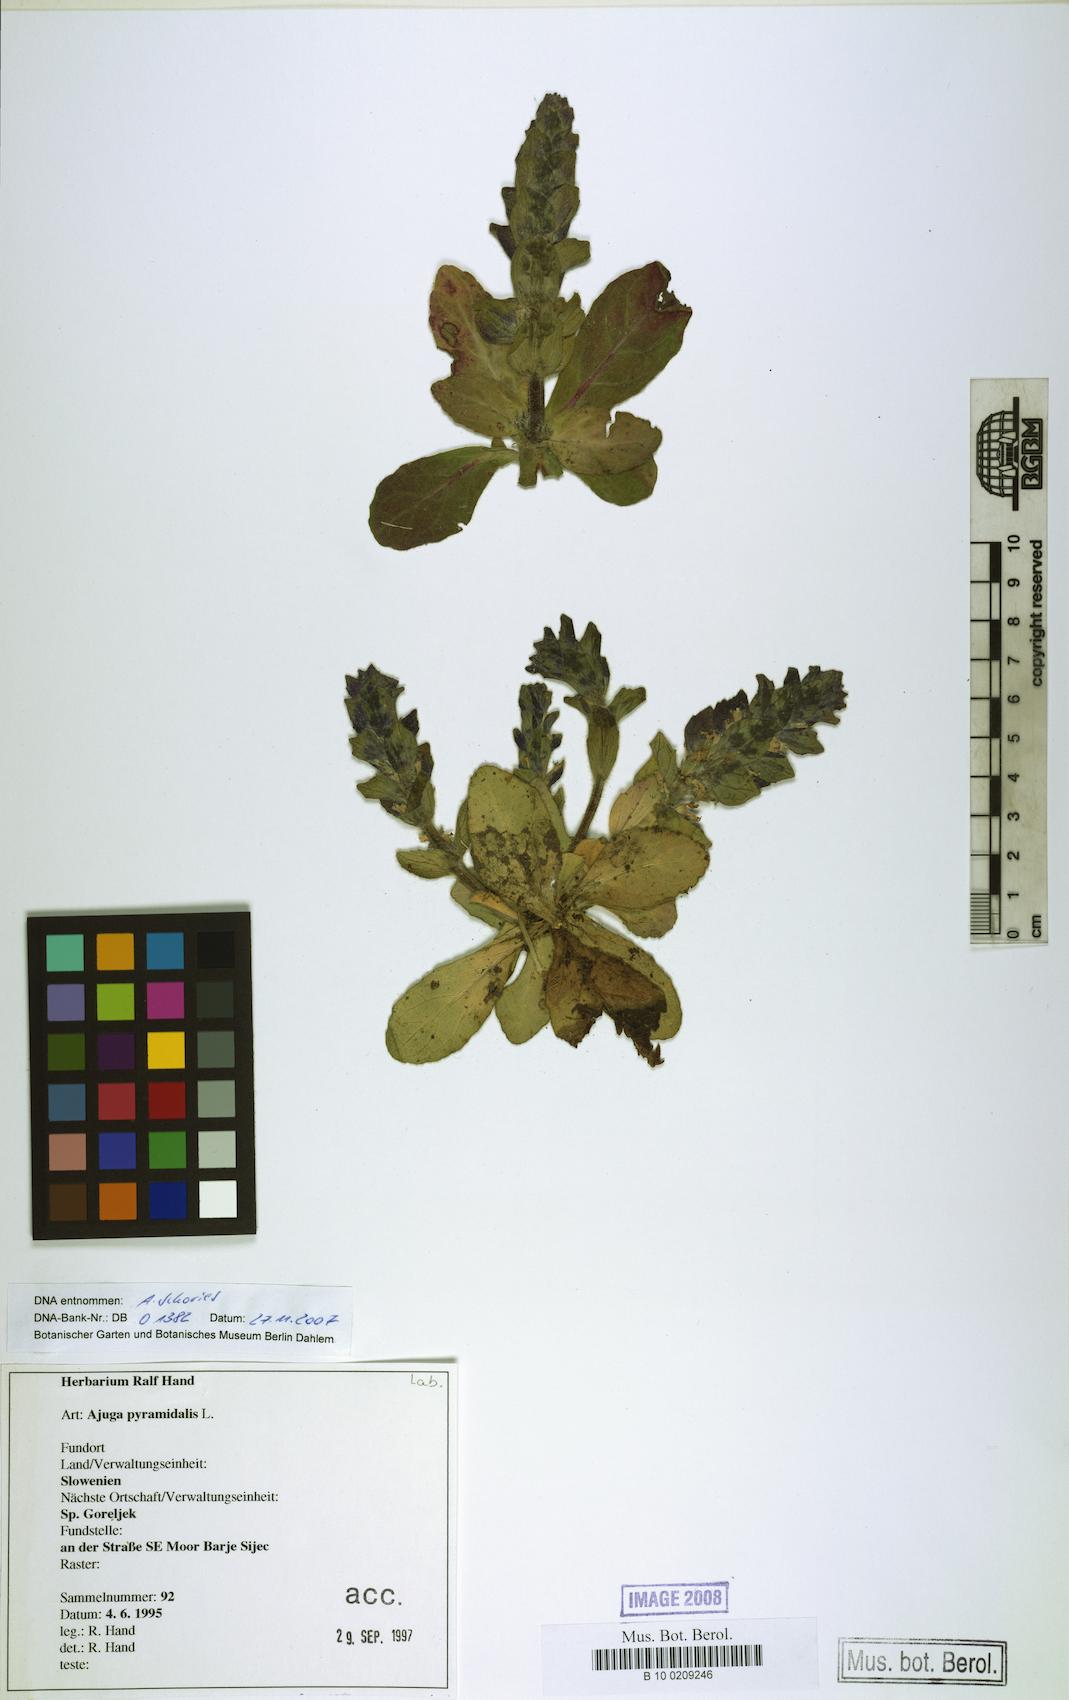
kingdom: Plantae
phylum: Tracheophyta
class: Magnoliopsida
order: Lamiales
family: Lamiaceae
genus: Ajuga
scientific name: Ajuga pyramidalis
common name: Pyramid bugle
